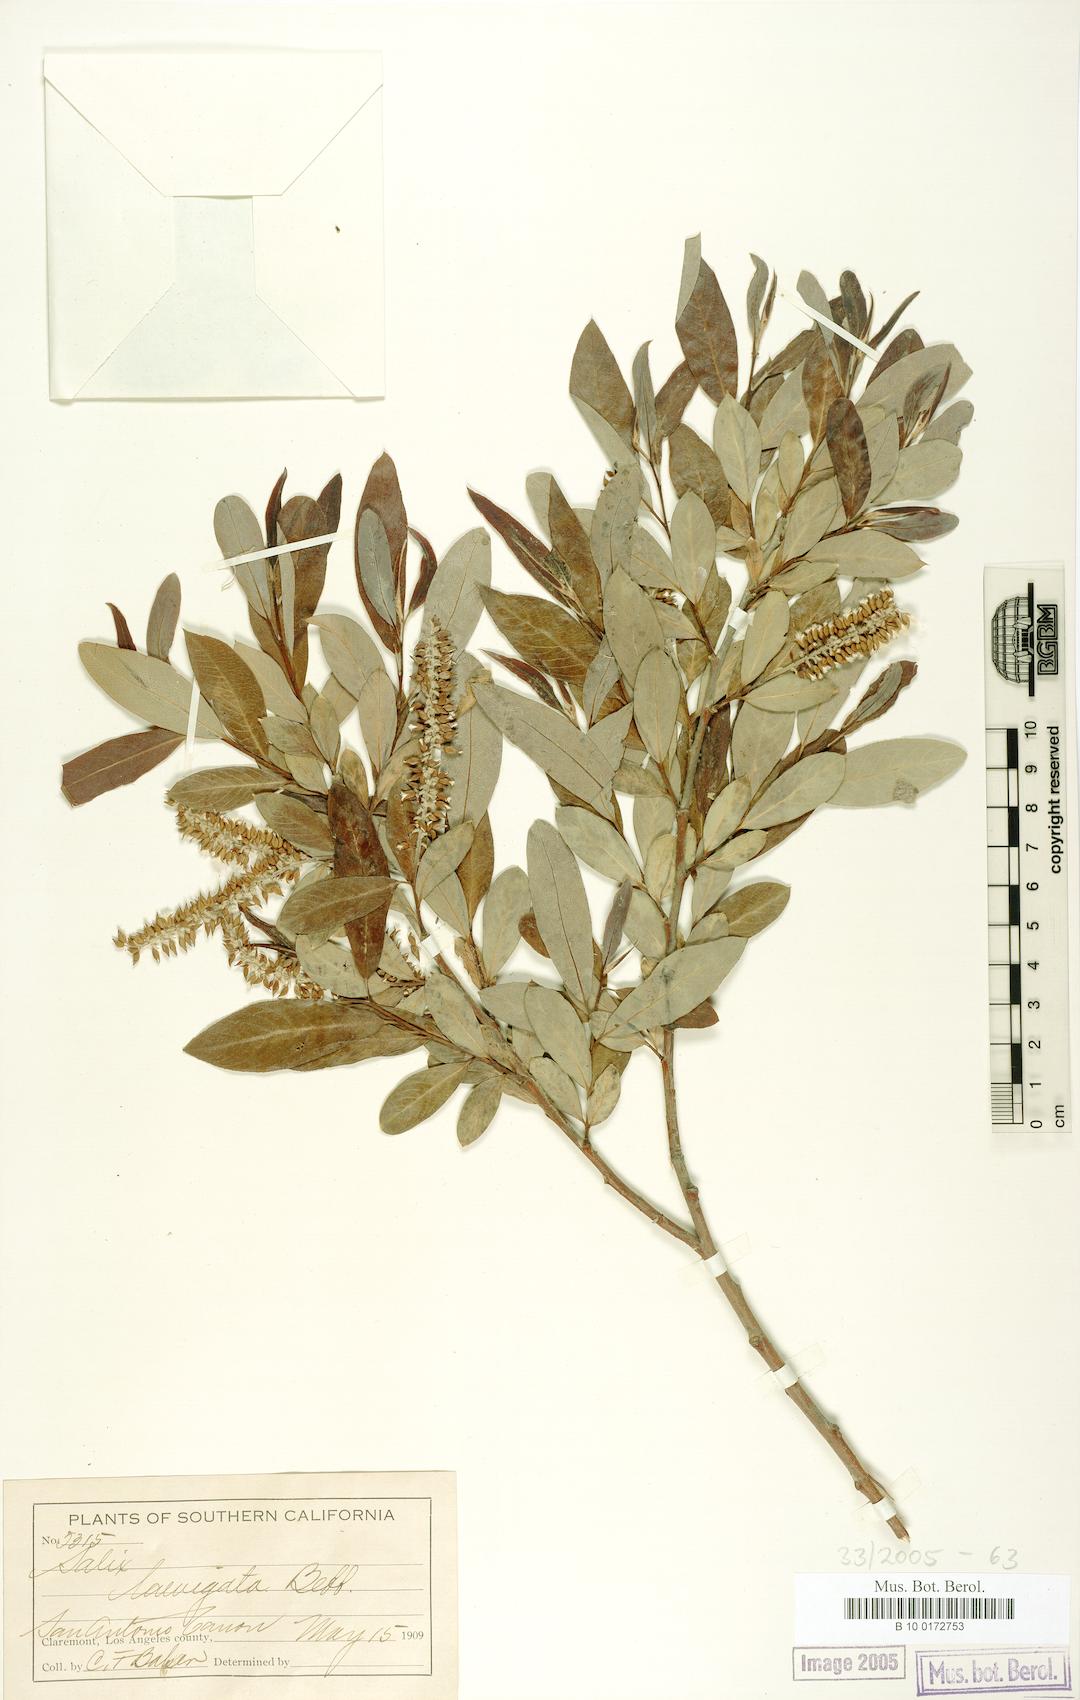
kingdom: Plantae
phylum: Tracheophyta
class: Magnoliopsida
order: Malpighiales
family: Salicaceae
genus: Salix
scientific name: Salix laevigata
